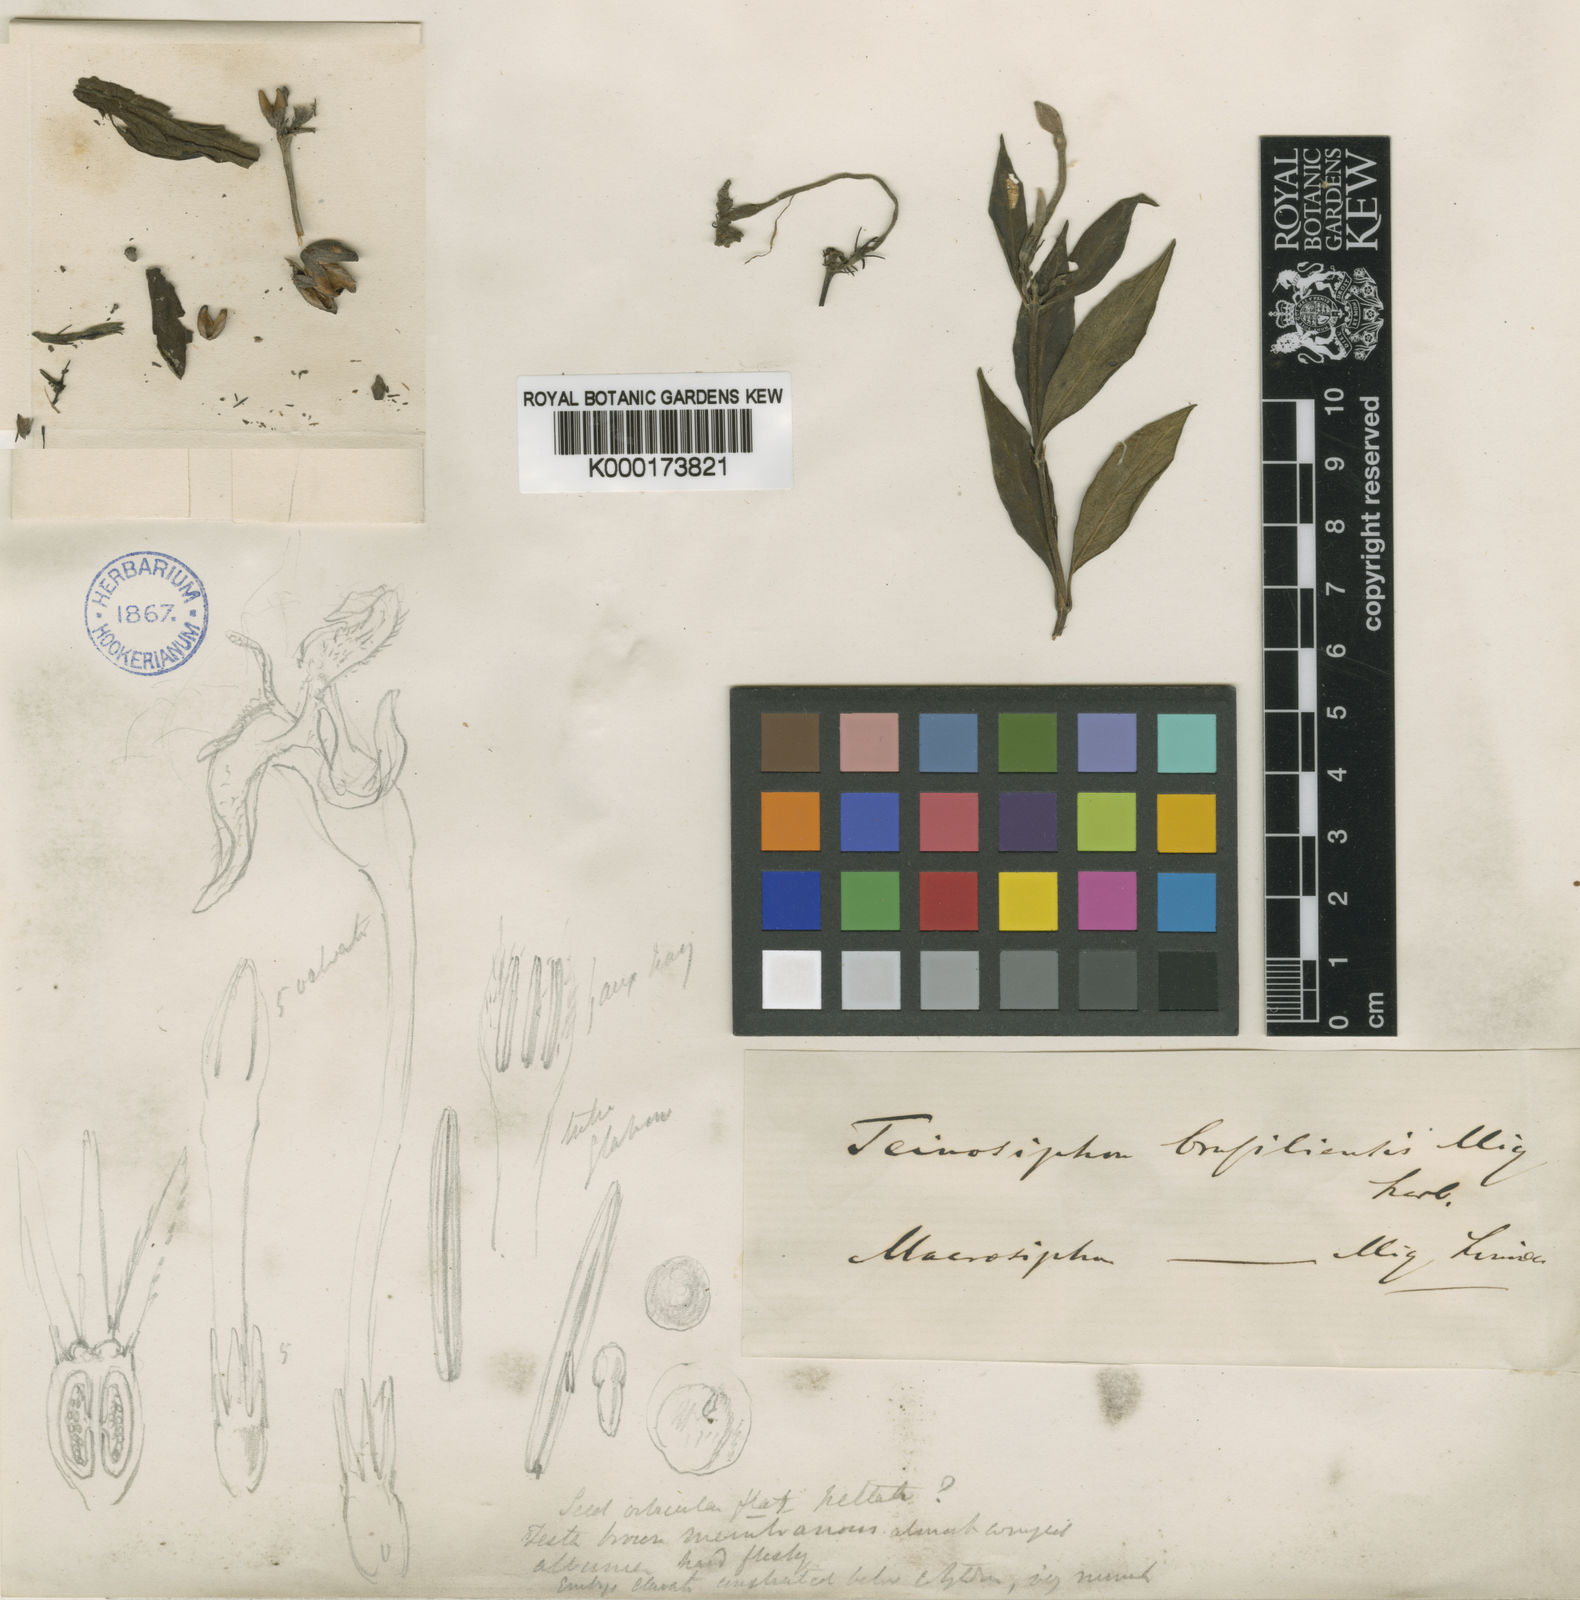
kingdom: Plantae
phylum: Tracheophyta
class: Magnoliopsida
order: Gentianales
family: Rubiaceae
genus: Hindsia
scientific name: Hindsia longiflora
